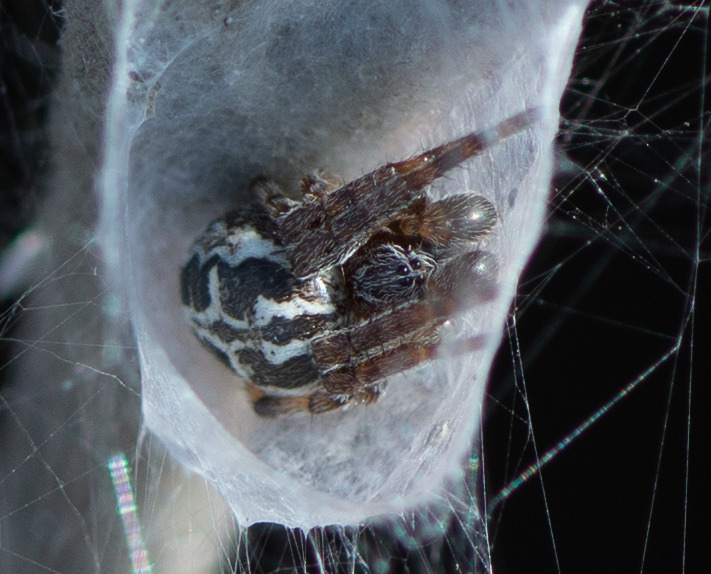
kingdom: Animalia
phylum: Arthropoda
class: Arachnida
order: Araneae
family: Araneidae
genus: Larinioides
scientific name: Larinioides cornutus
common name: Sivhjulspinder
